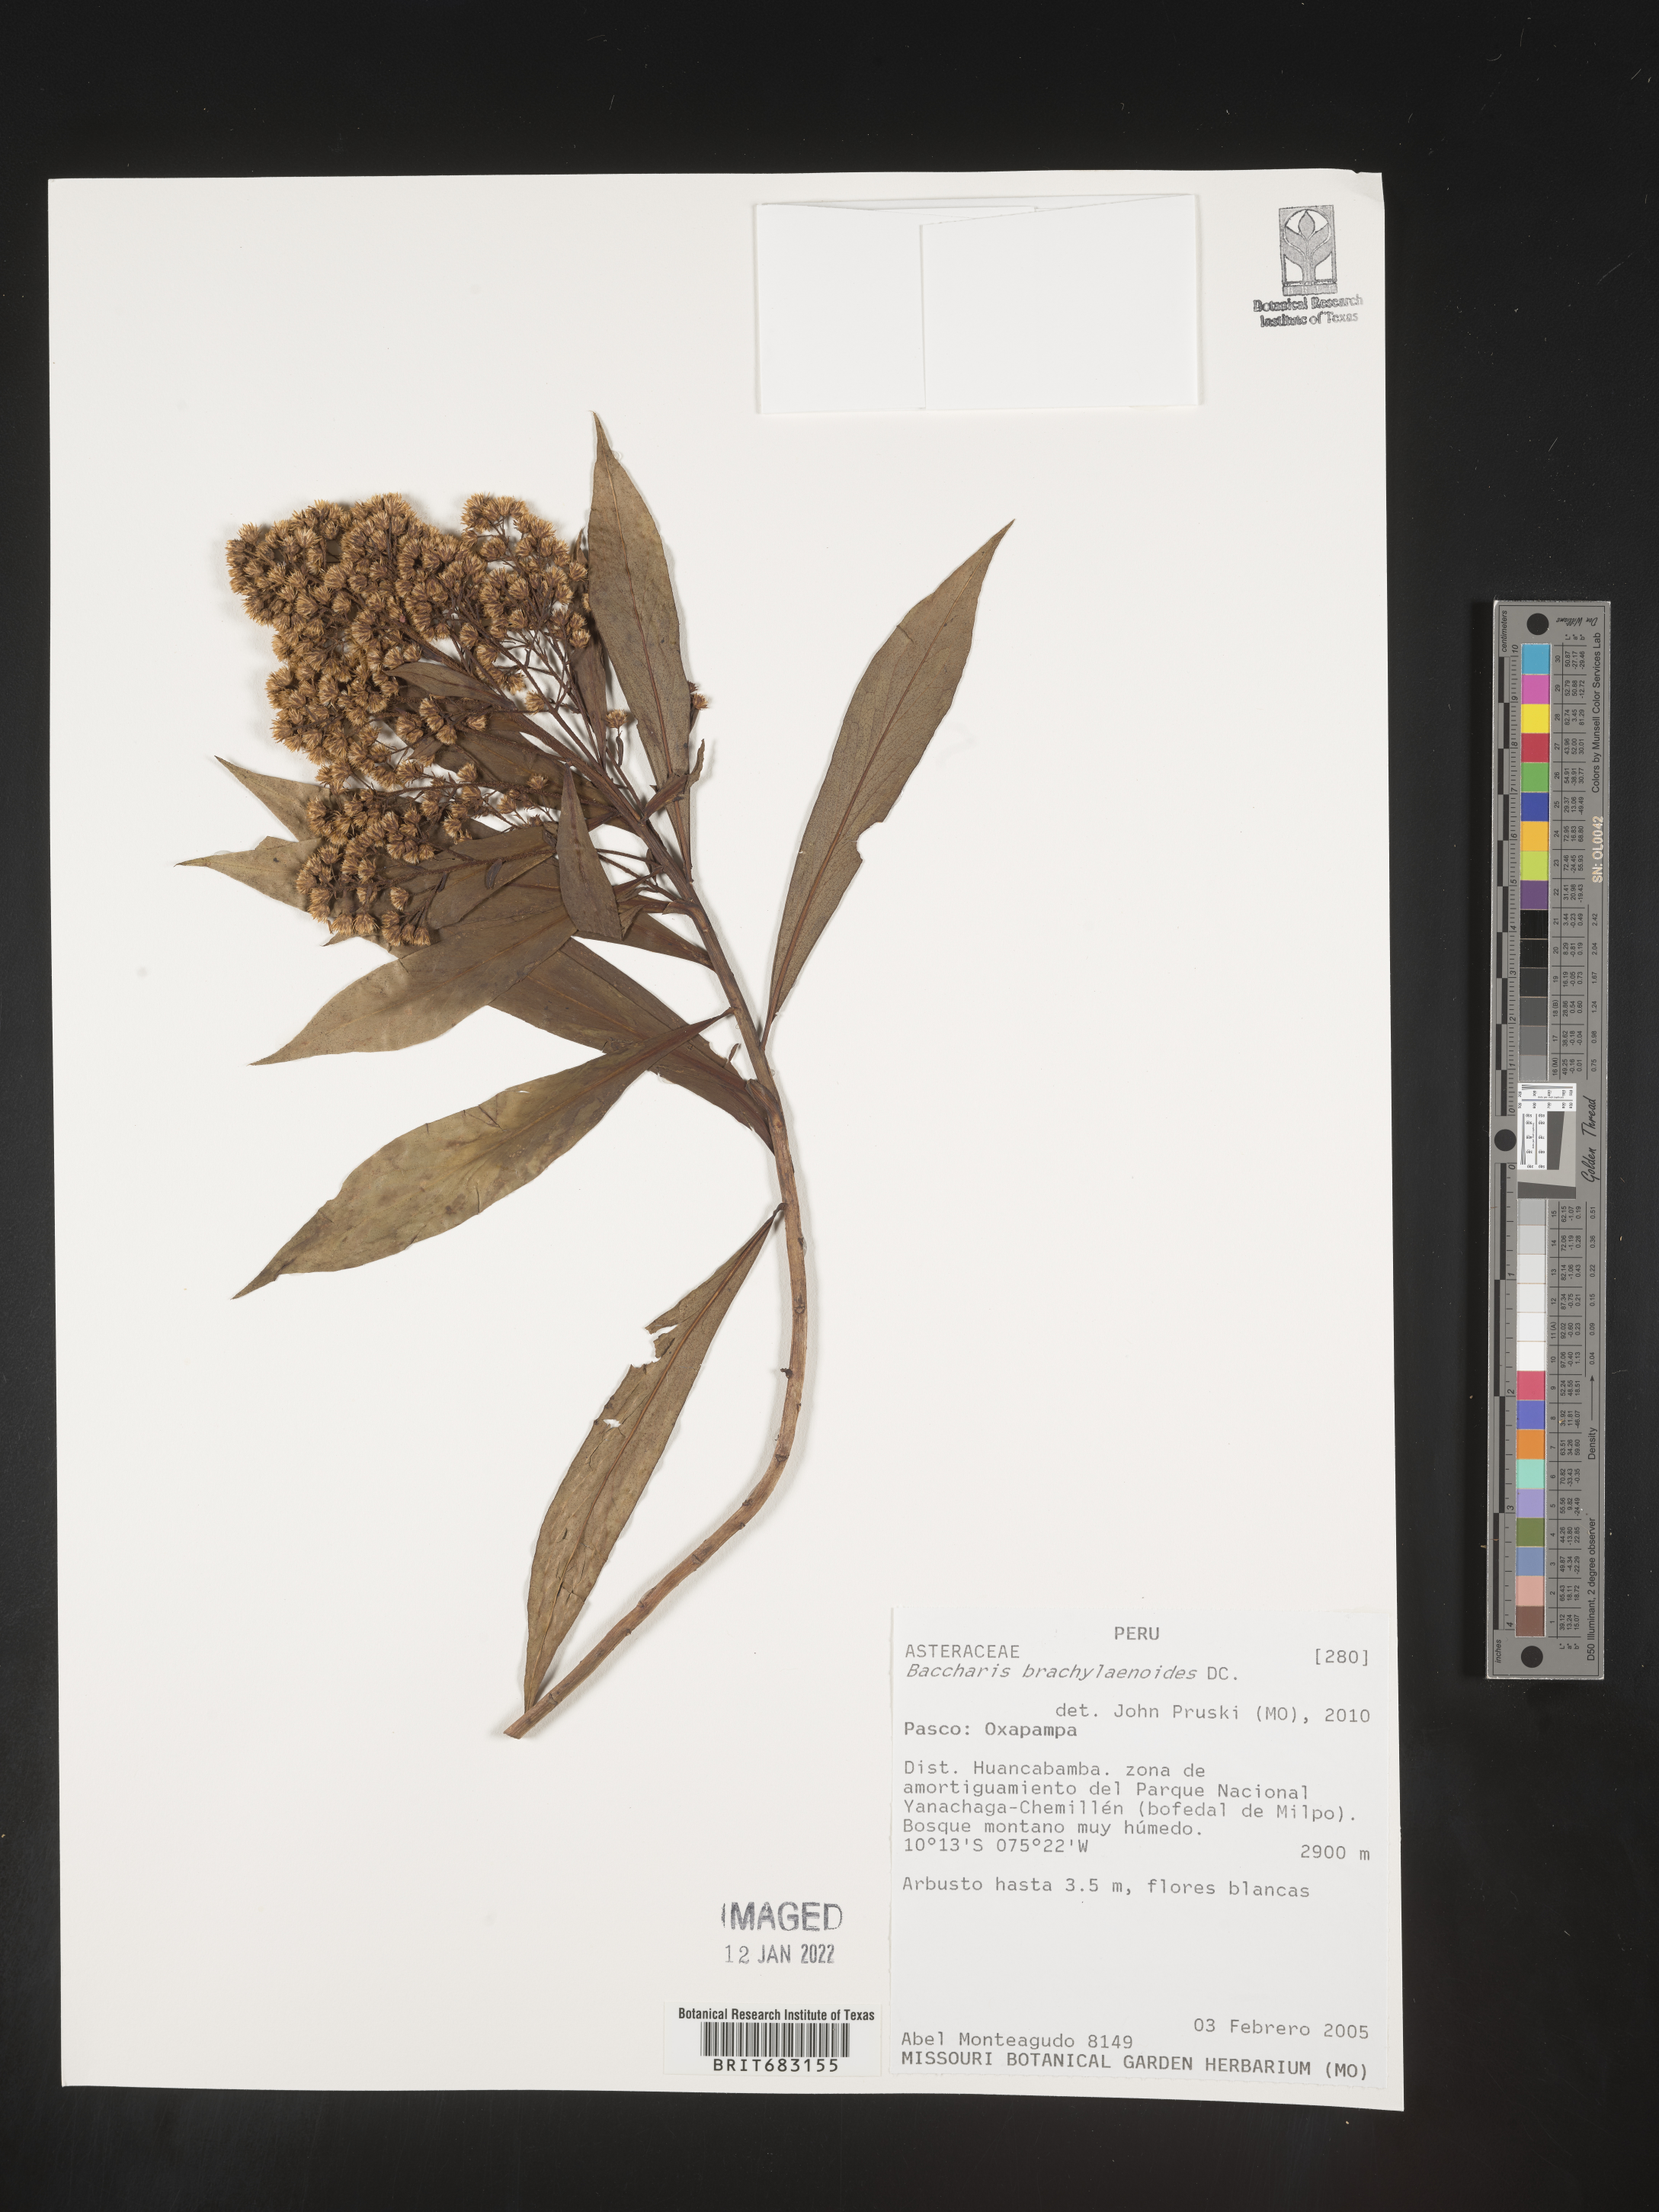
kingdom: Plantae
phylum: Tracheophyta
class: Magnoliopsida
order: Asterales
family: Asteraceae
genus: Baccharis
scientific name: Baccharis
